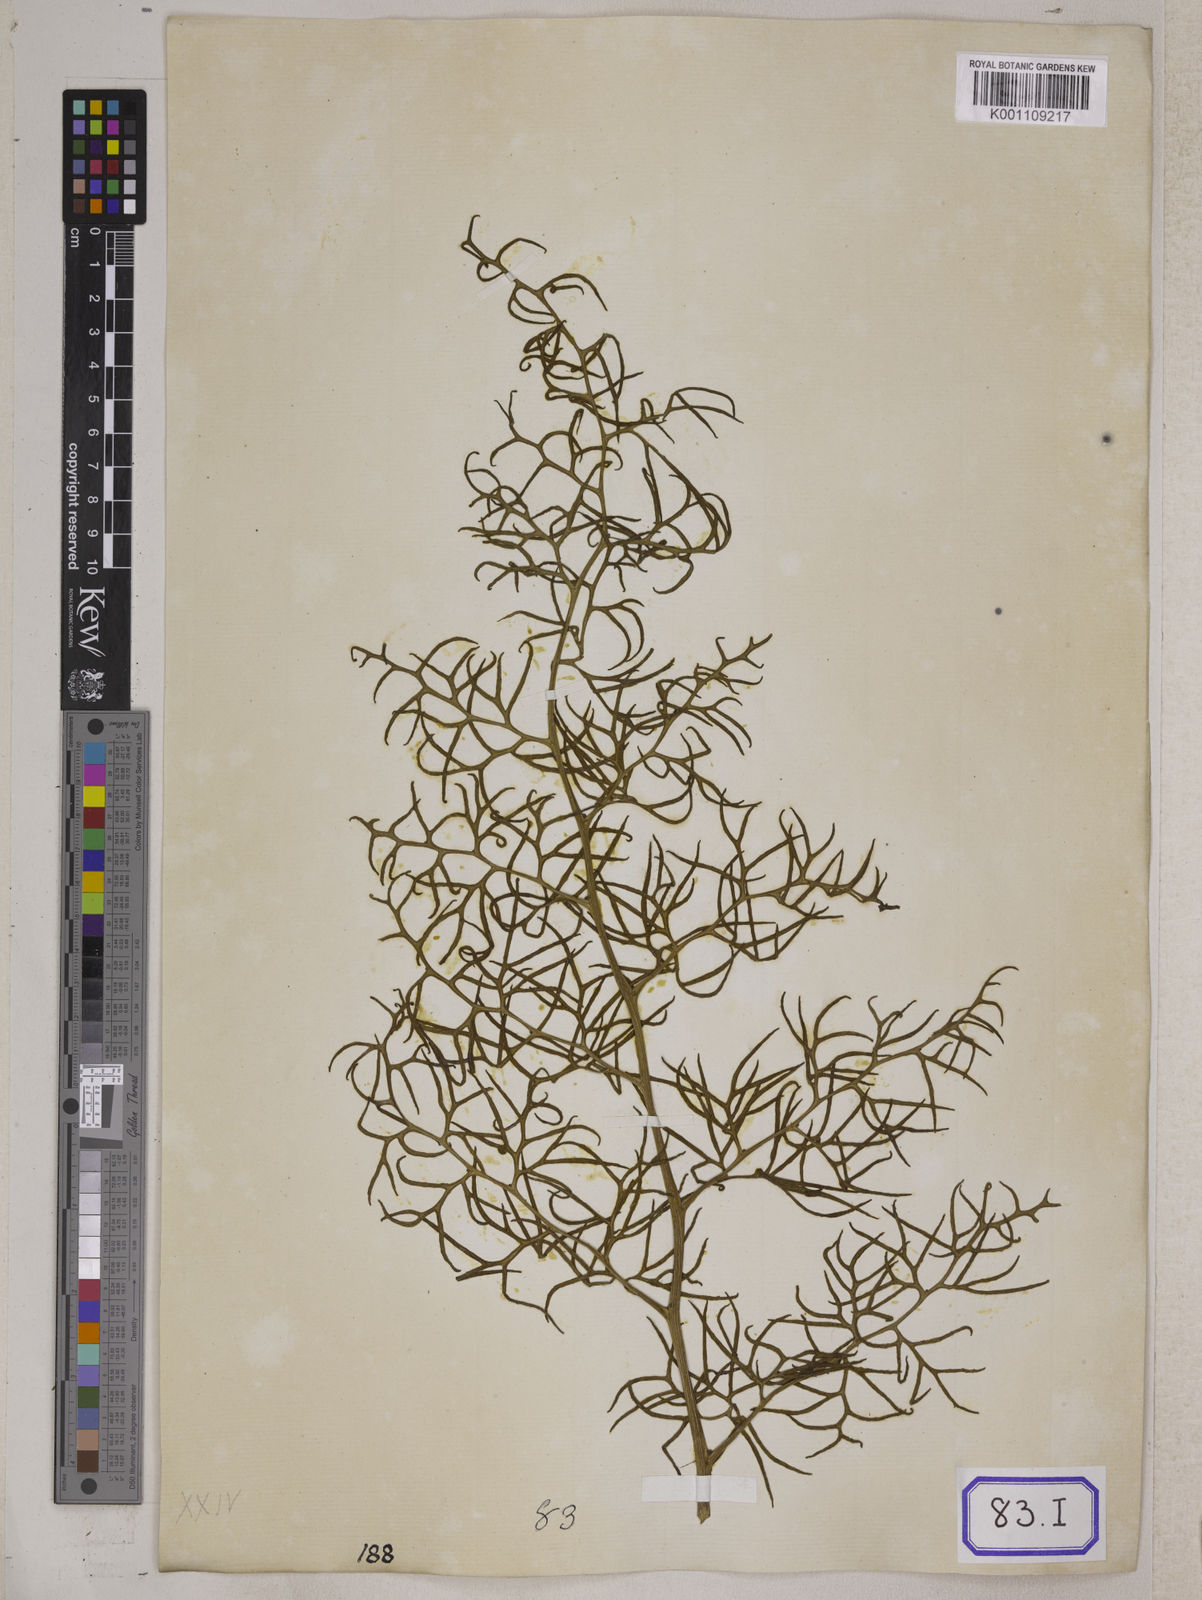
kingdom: Plantae
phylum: Tracheophyta
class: Polypodiopsida
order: Polypodiales
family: Pteridaceae
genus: Ceratopteris
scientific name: Ceratopteris thalictroides
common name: Water fern
